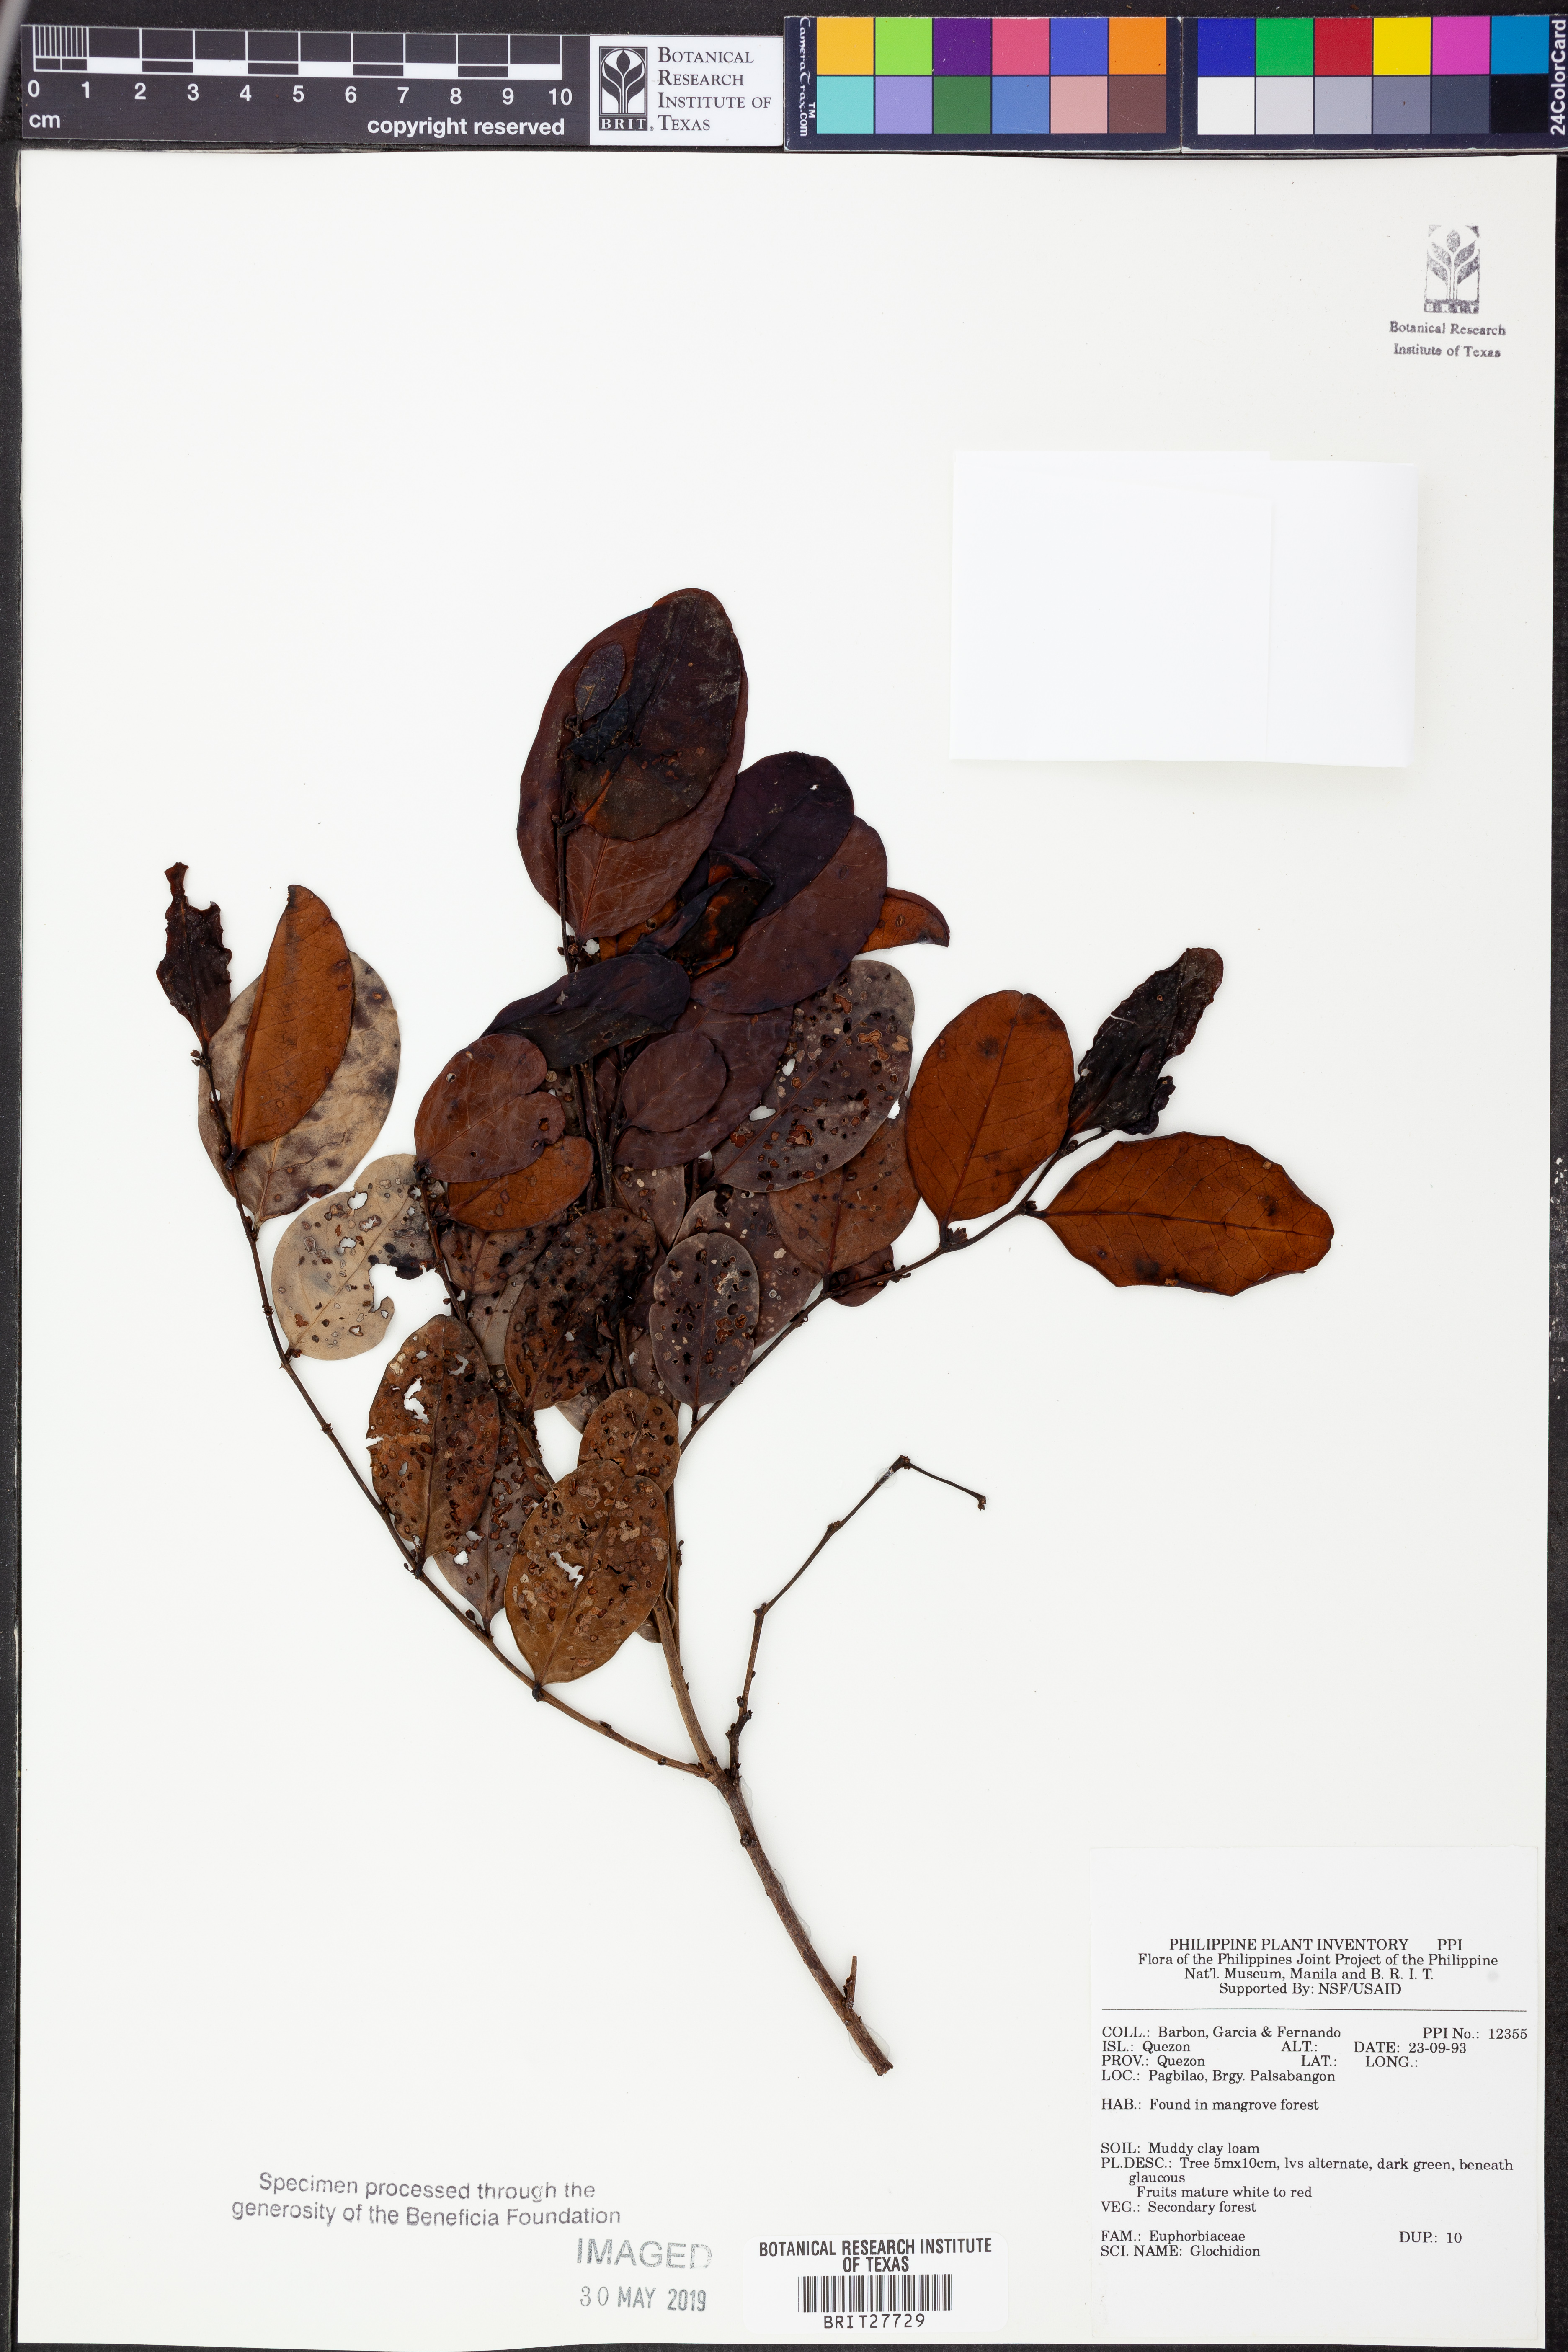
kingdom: Plantae
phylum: Tracheophyta
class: Magnoliopsida
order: Malpighiales
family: Phyllanthaceae
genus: Glochidion
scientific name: Glochidion
